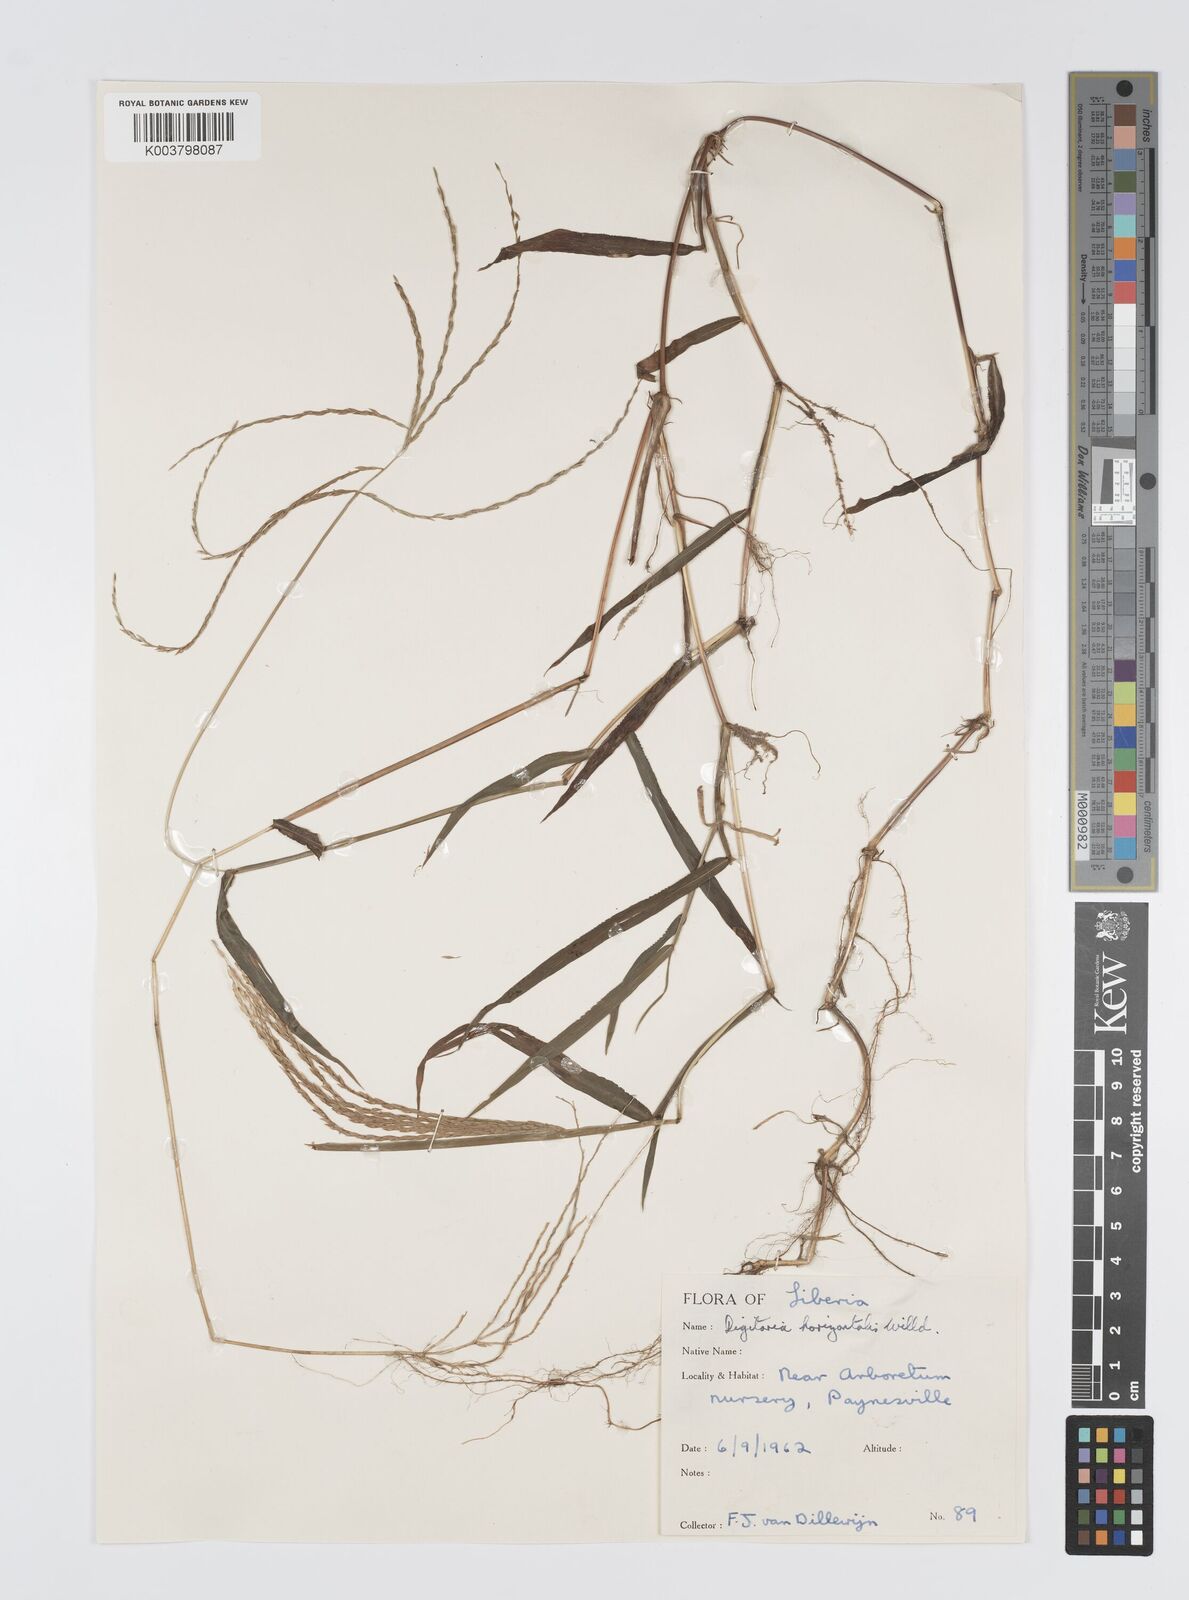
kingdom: Plantae
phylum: Tracheophyta
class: Liliopsida
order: Poales
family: Poaceae
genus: Digitaria
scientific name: Digitaria horizontalis
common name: Jamaican crabgrass
